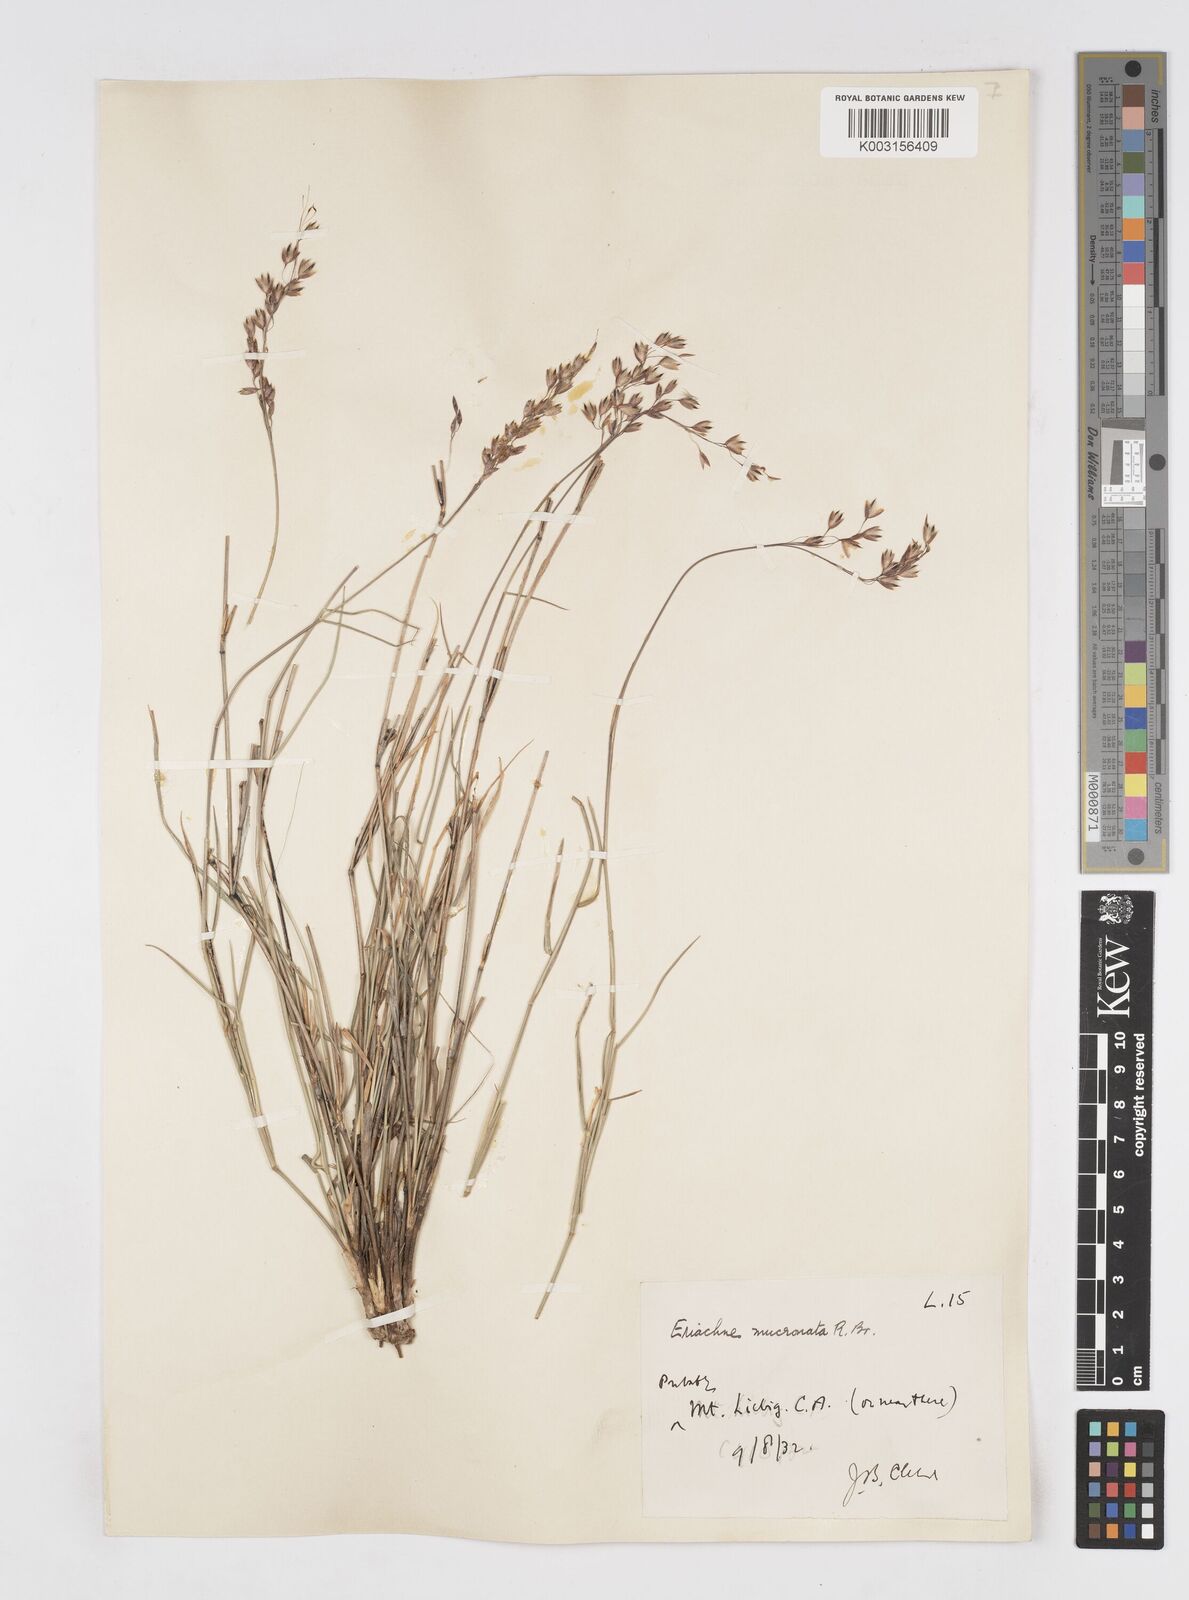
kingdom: Plantae
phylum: Tracheophyta
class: Liliopsida
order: Poales
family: Poaceae
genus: Eriachne
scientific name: Eriachne mucronata
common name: Mountain wanderrie grass
